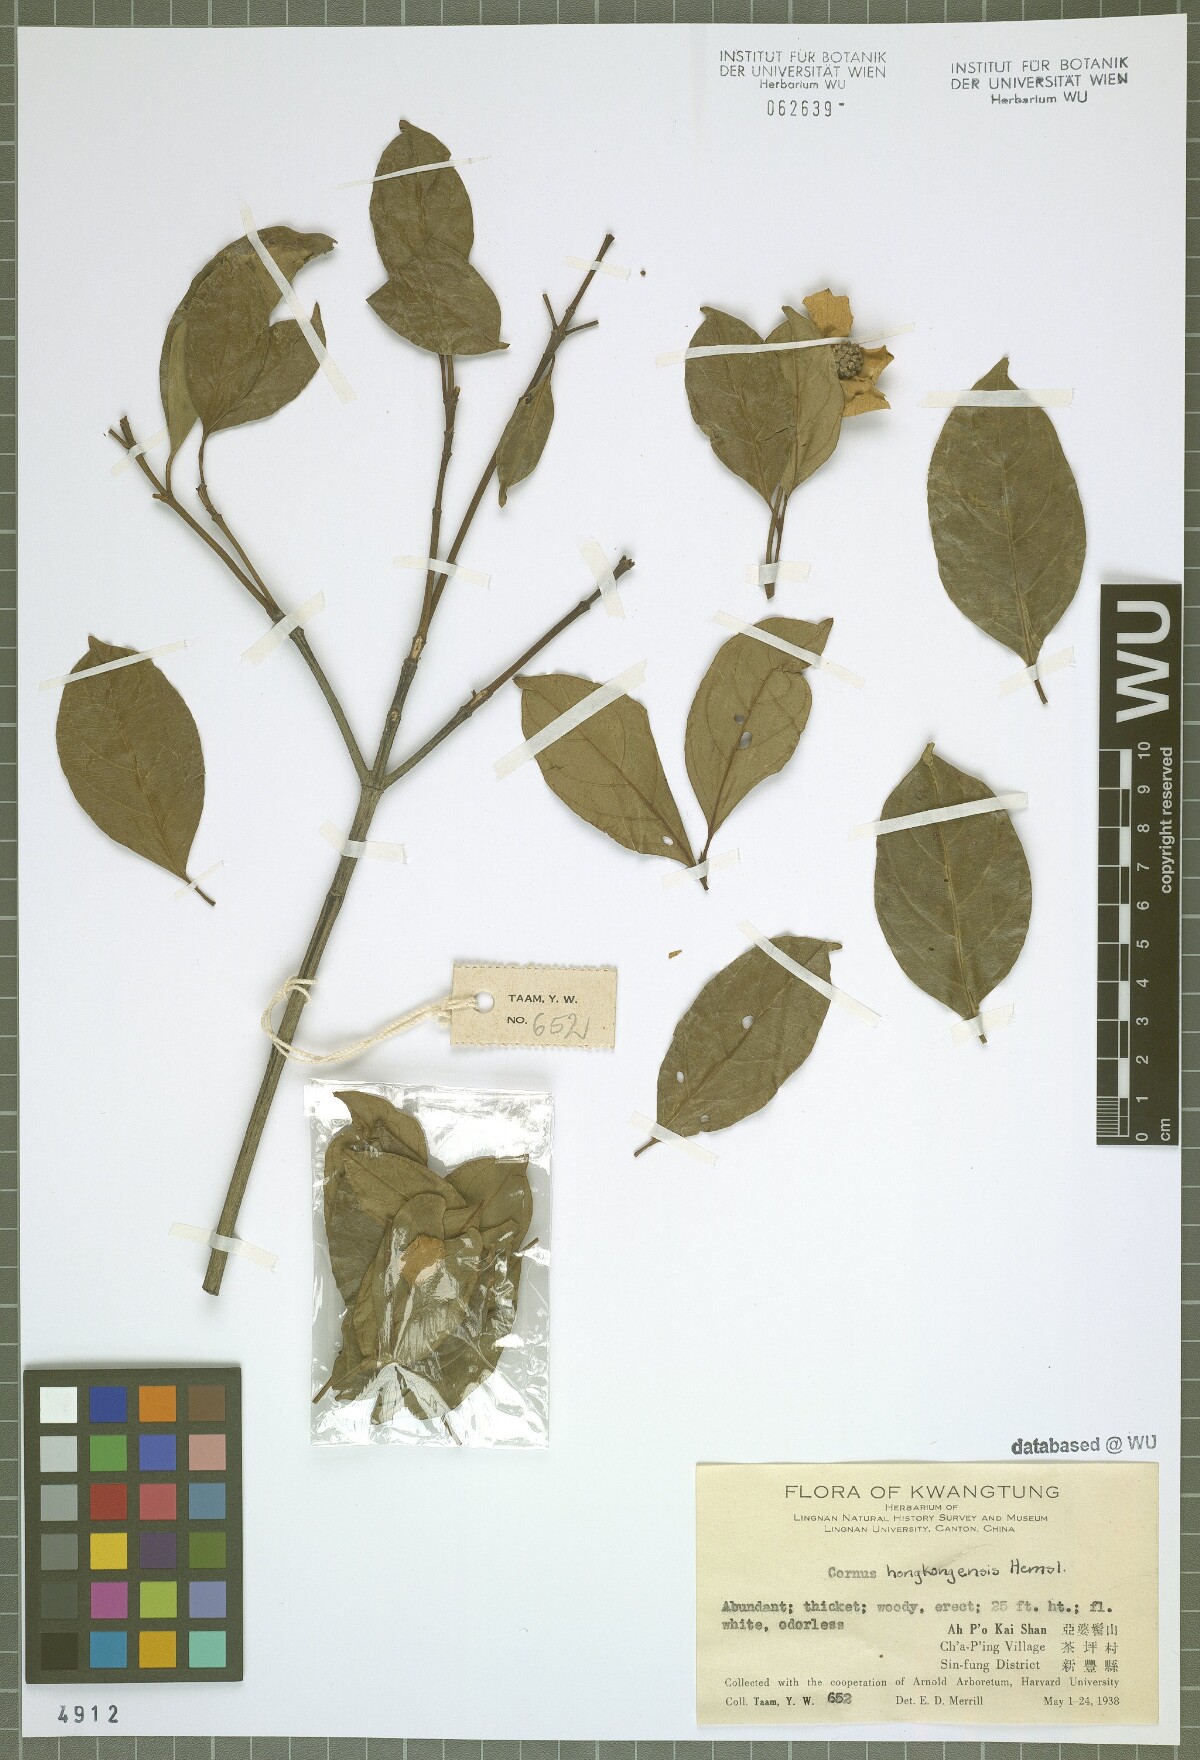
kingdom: Plantae
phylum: Tracheophyta
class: Magnoliopsida
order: Cornales
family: Cornaceae
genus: Cornus
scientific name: Cornus hongkongensis
